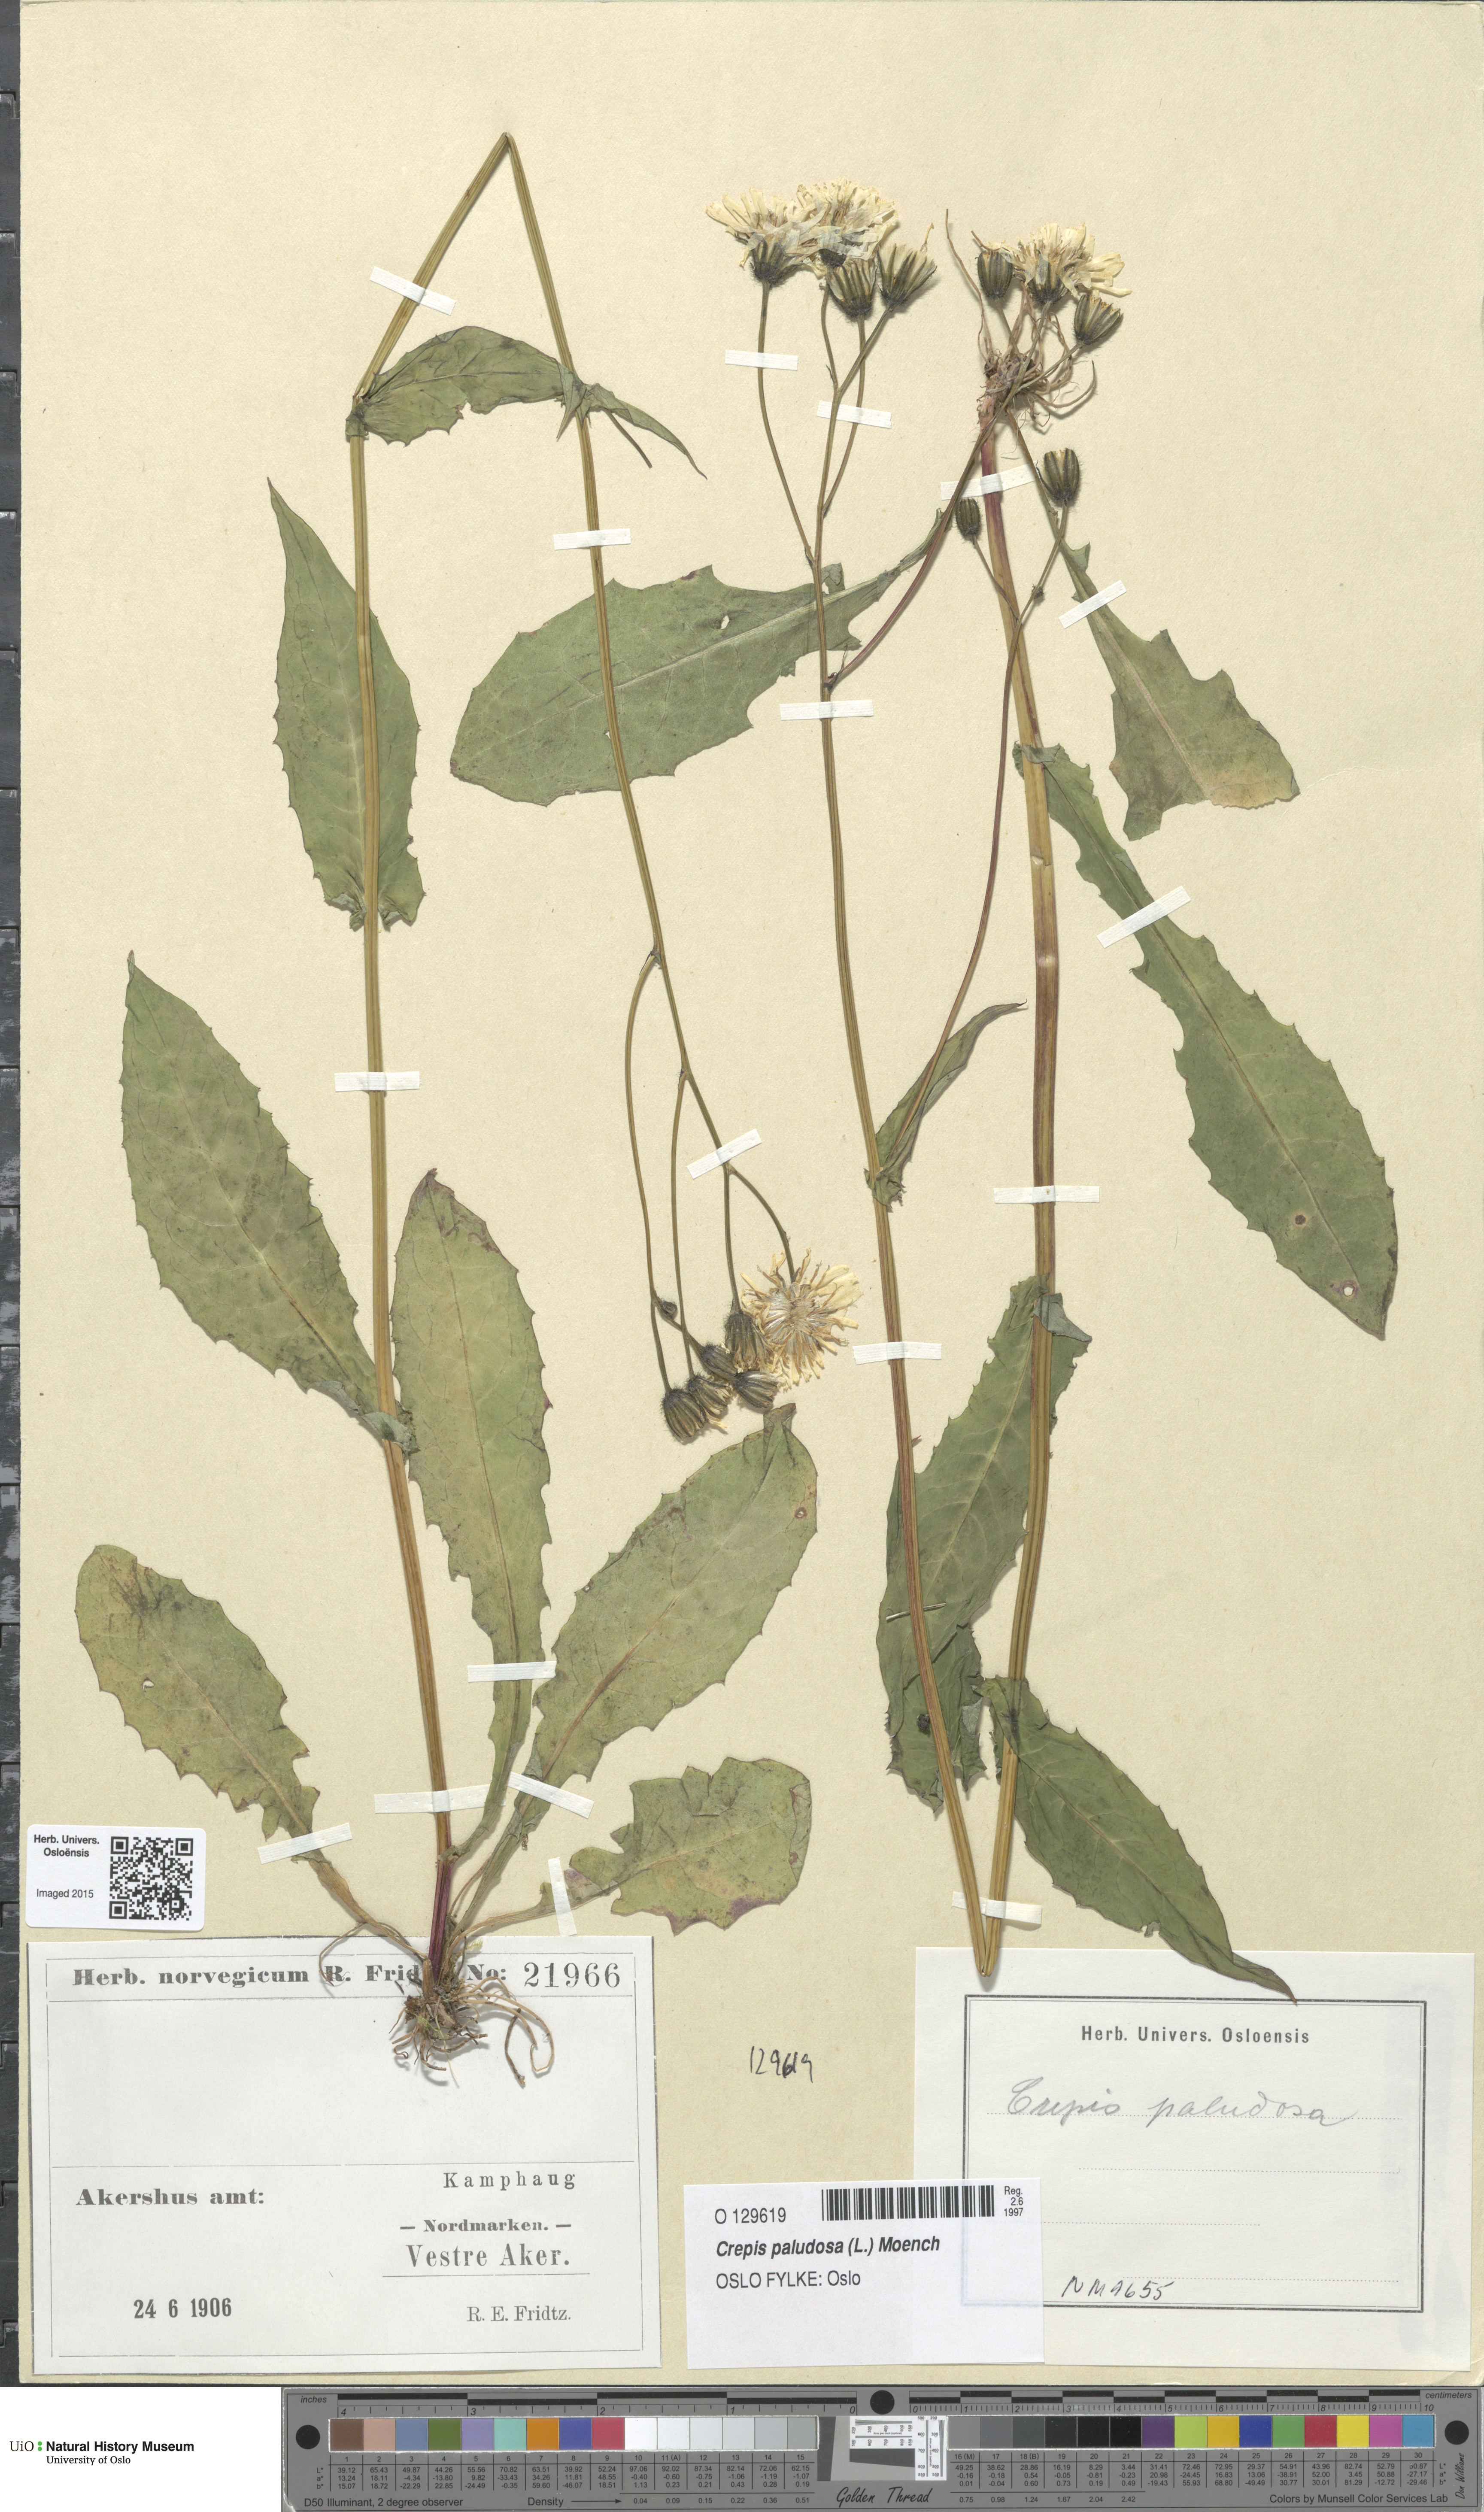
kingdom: Plantae
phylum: Tracheophyta
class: Magnoliopsida
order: Asterales
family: Asteraceae
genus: Crepis
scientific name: Crepis paludosa
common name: Marsh hawk's-beard
